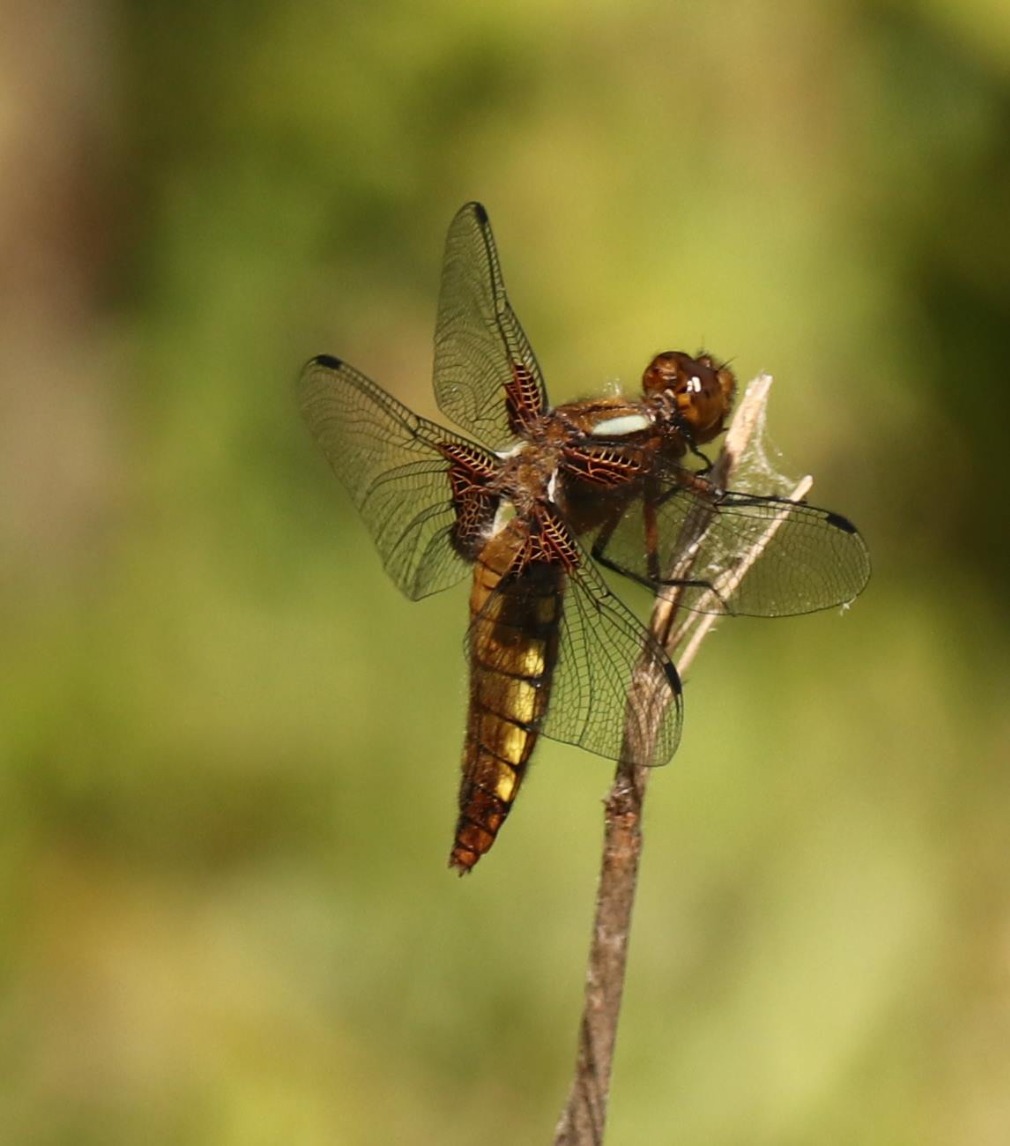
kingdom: Animalia
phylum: Arthropoda
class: Insecta
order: Odonata
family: Libellulidae
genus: Libellula
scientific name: Libellula depressa
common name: Blå libel
